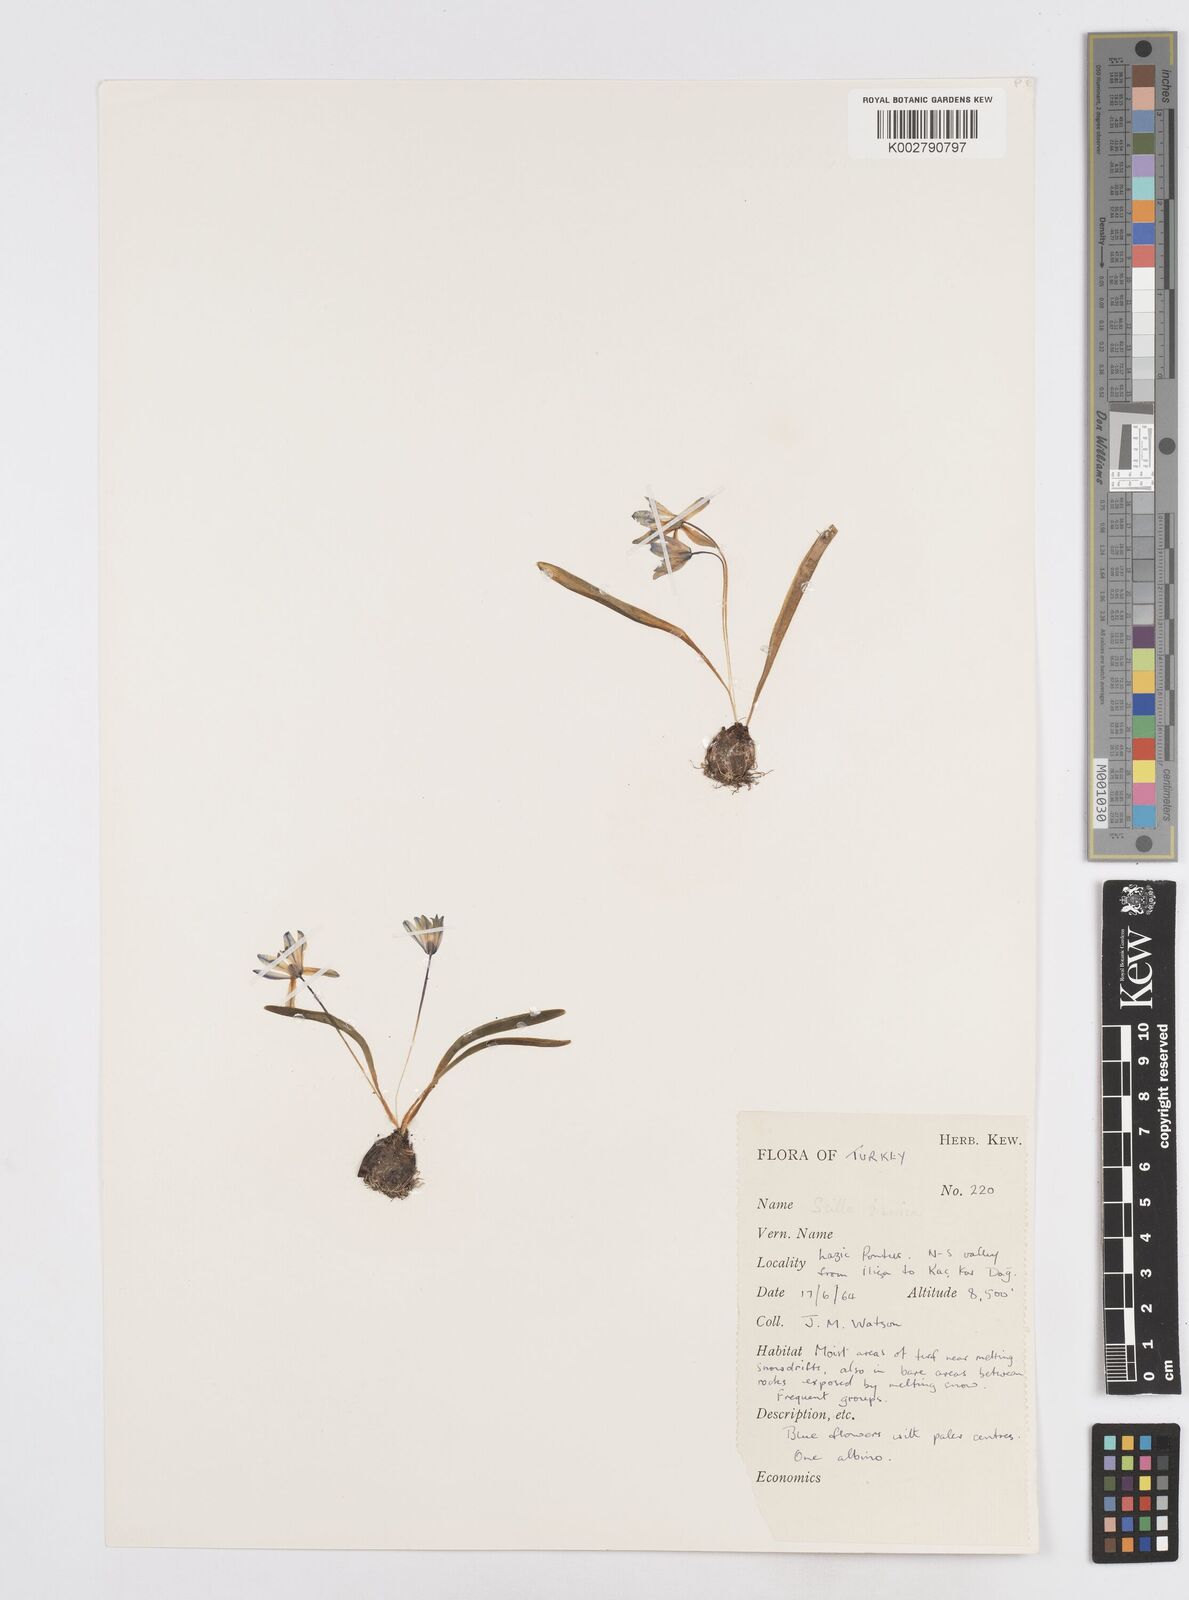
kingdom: Plantae
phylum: Tracheophyta
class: Liliopsida
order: Asparagales
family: Asparagaceae
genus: Scilla
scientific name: Scilla siberica
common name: Siberian squill
